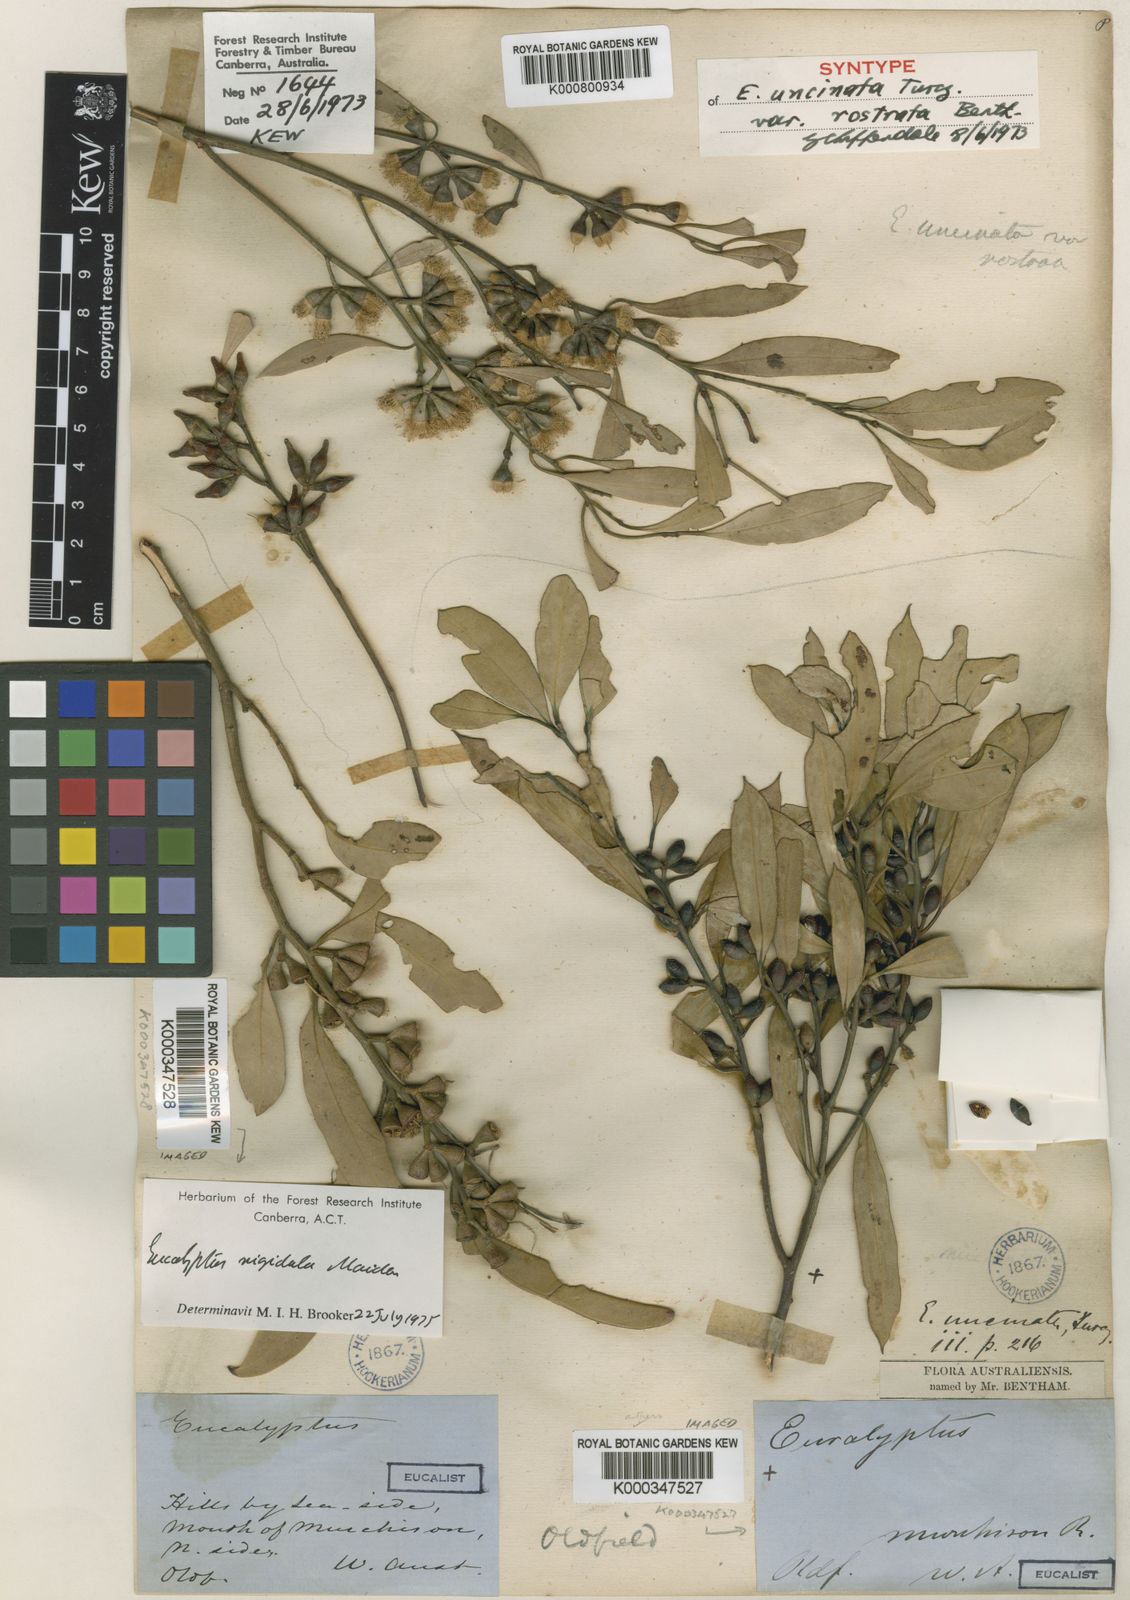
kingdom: Plantae
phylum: Tracheophyta
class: Magnoliopsida
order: Myrtales
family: Myrtaceae
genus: Eucalyptus
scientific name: Eucalyptus rigidula
